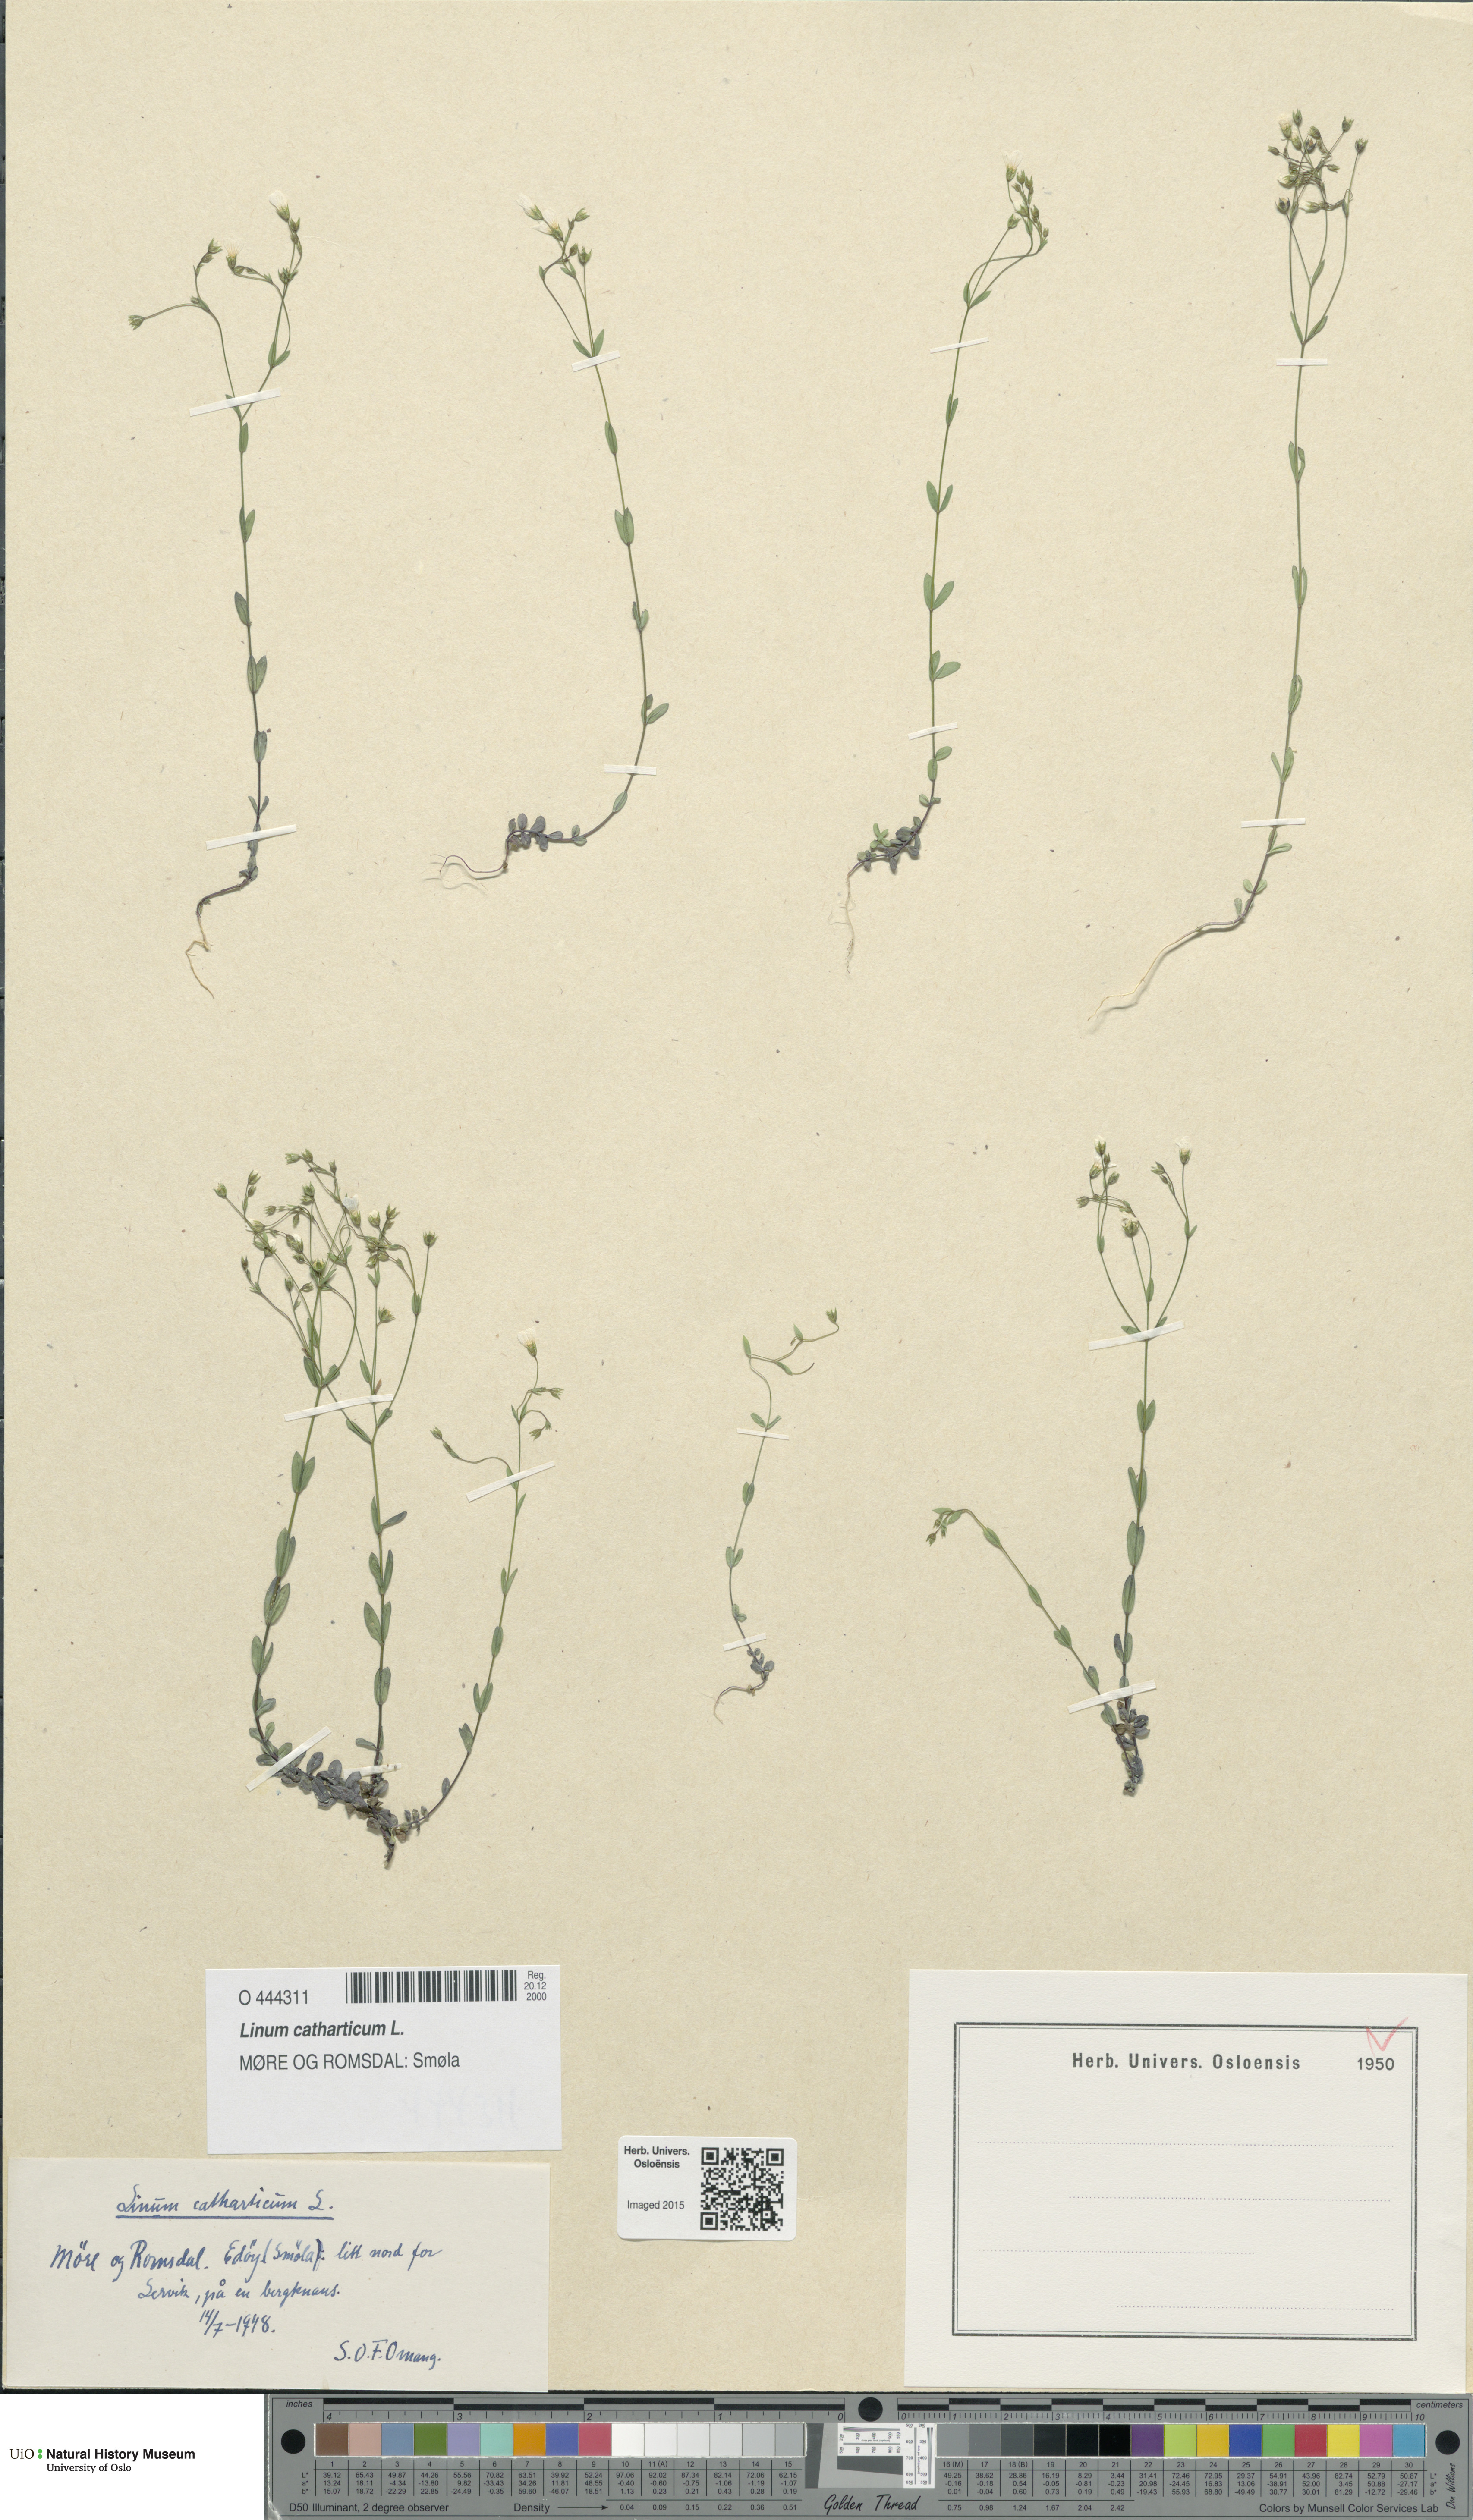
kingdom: Plantae
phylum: Tracheophyta
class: Magnoliopsida
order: Malpighiales
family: Linaceae
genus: Linum
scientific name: Linum catharticum
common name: Fairy flax
